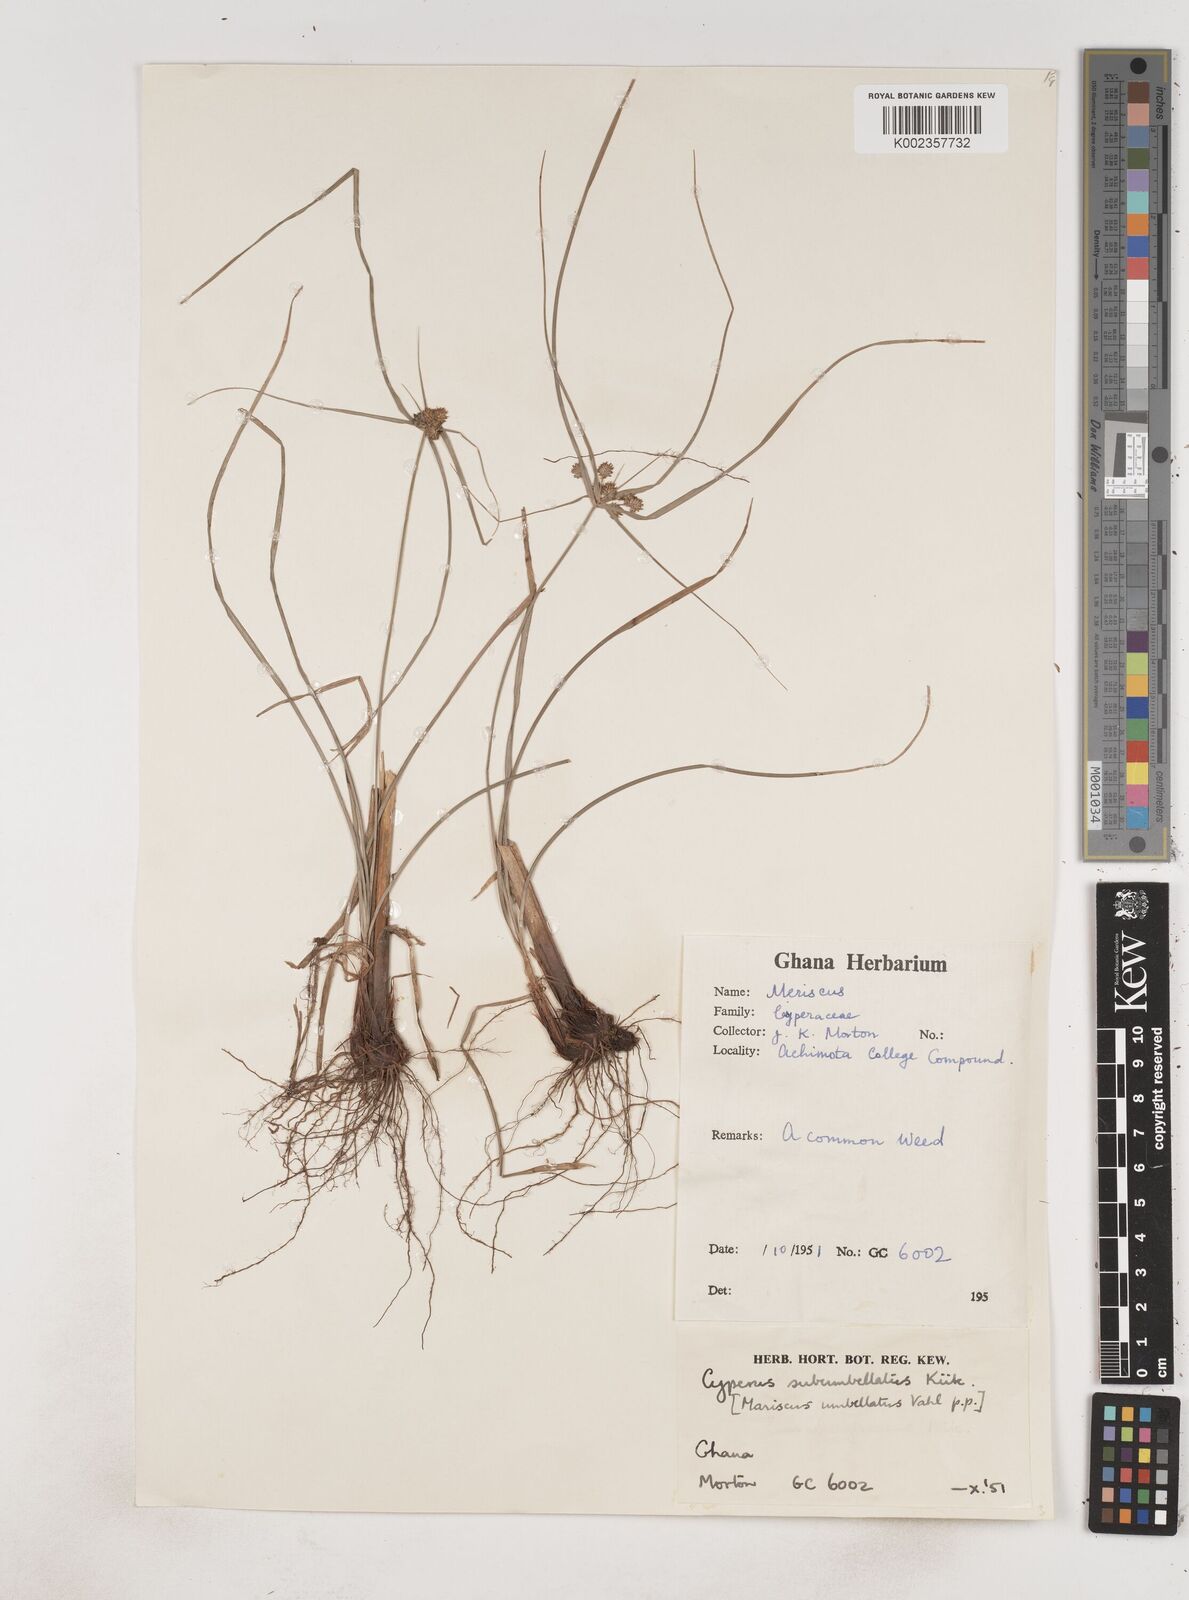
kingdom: Plantae
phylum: Tracheophyta
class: Liliopsida
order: Poales
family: Cyperaceae
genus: Cyperus
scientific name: Cyperus sublimis
